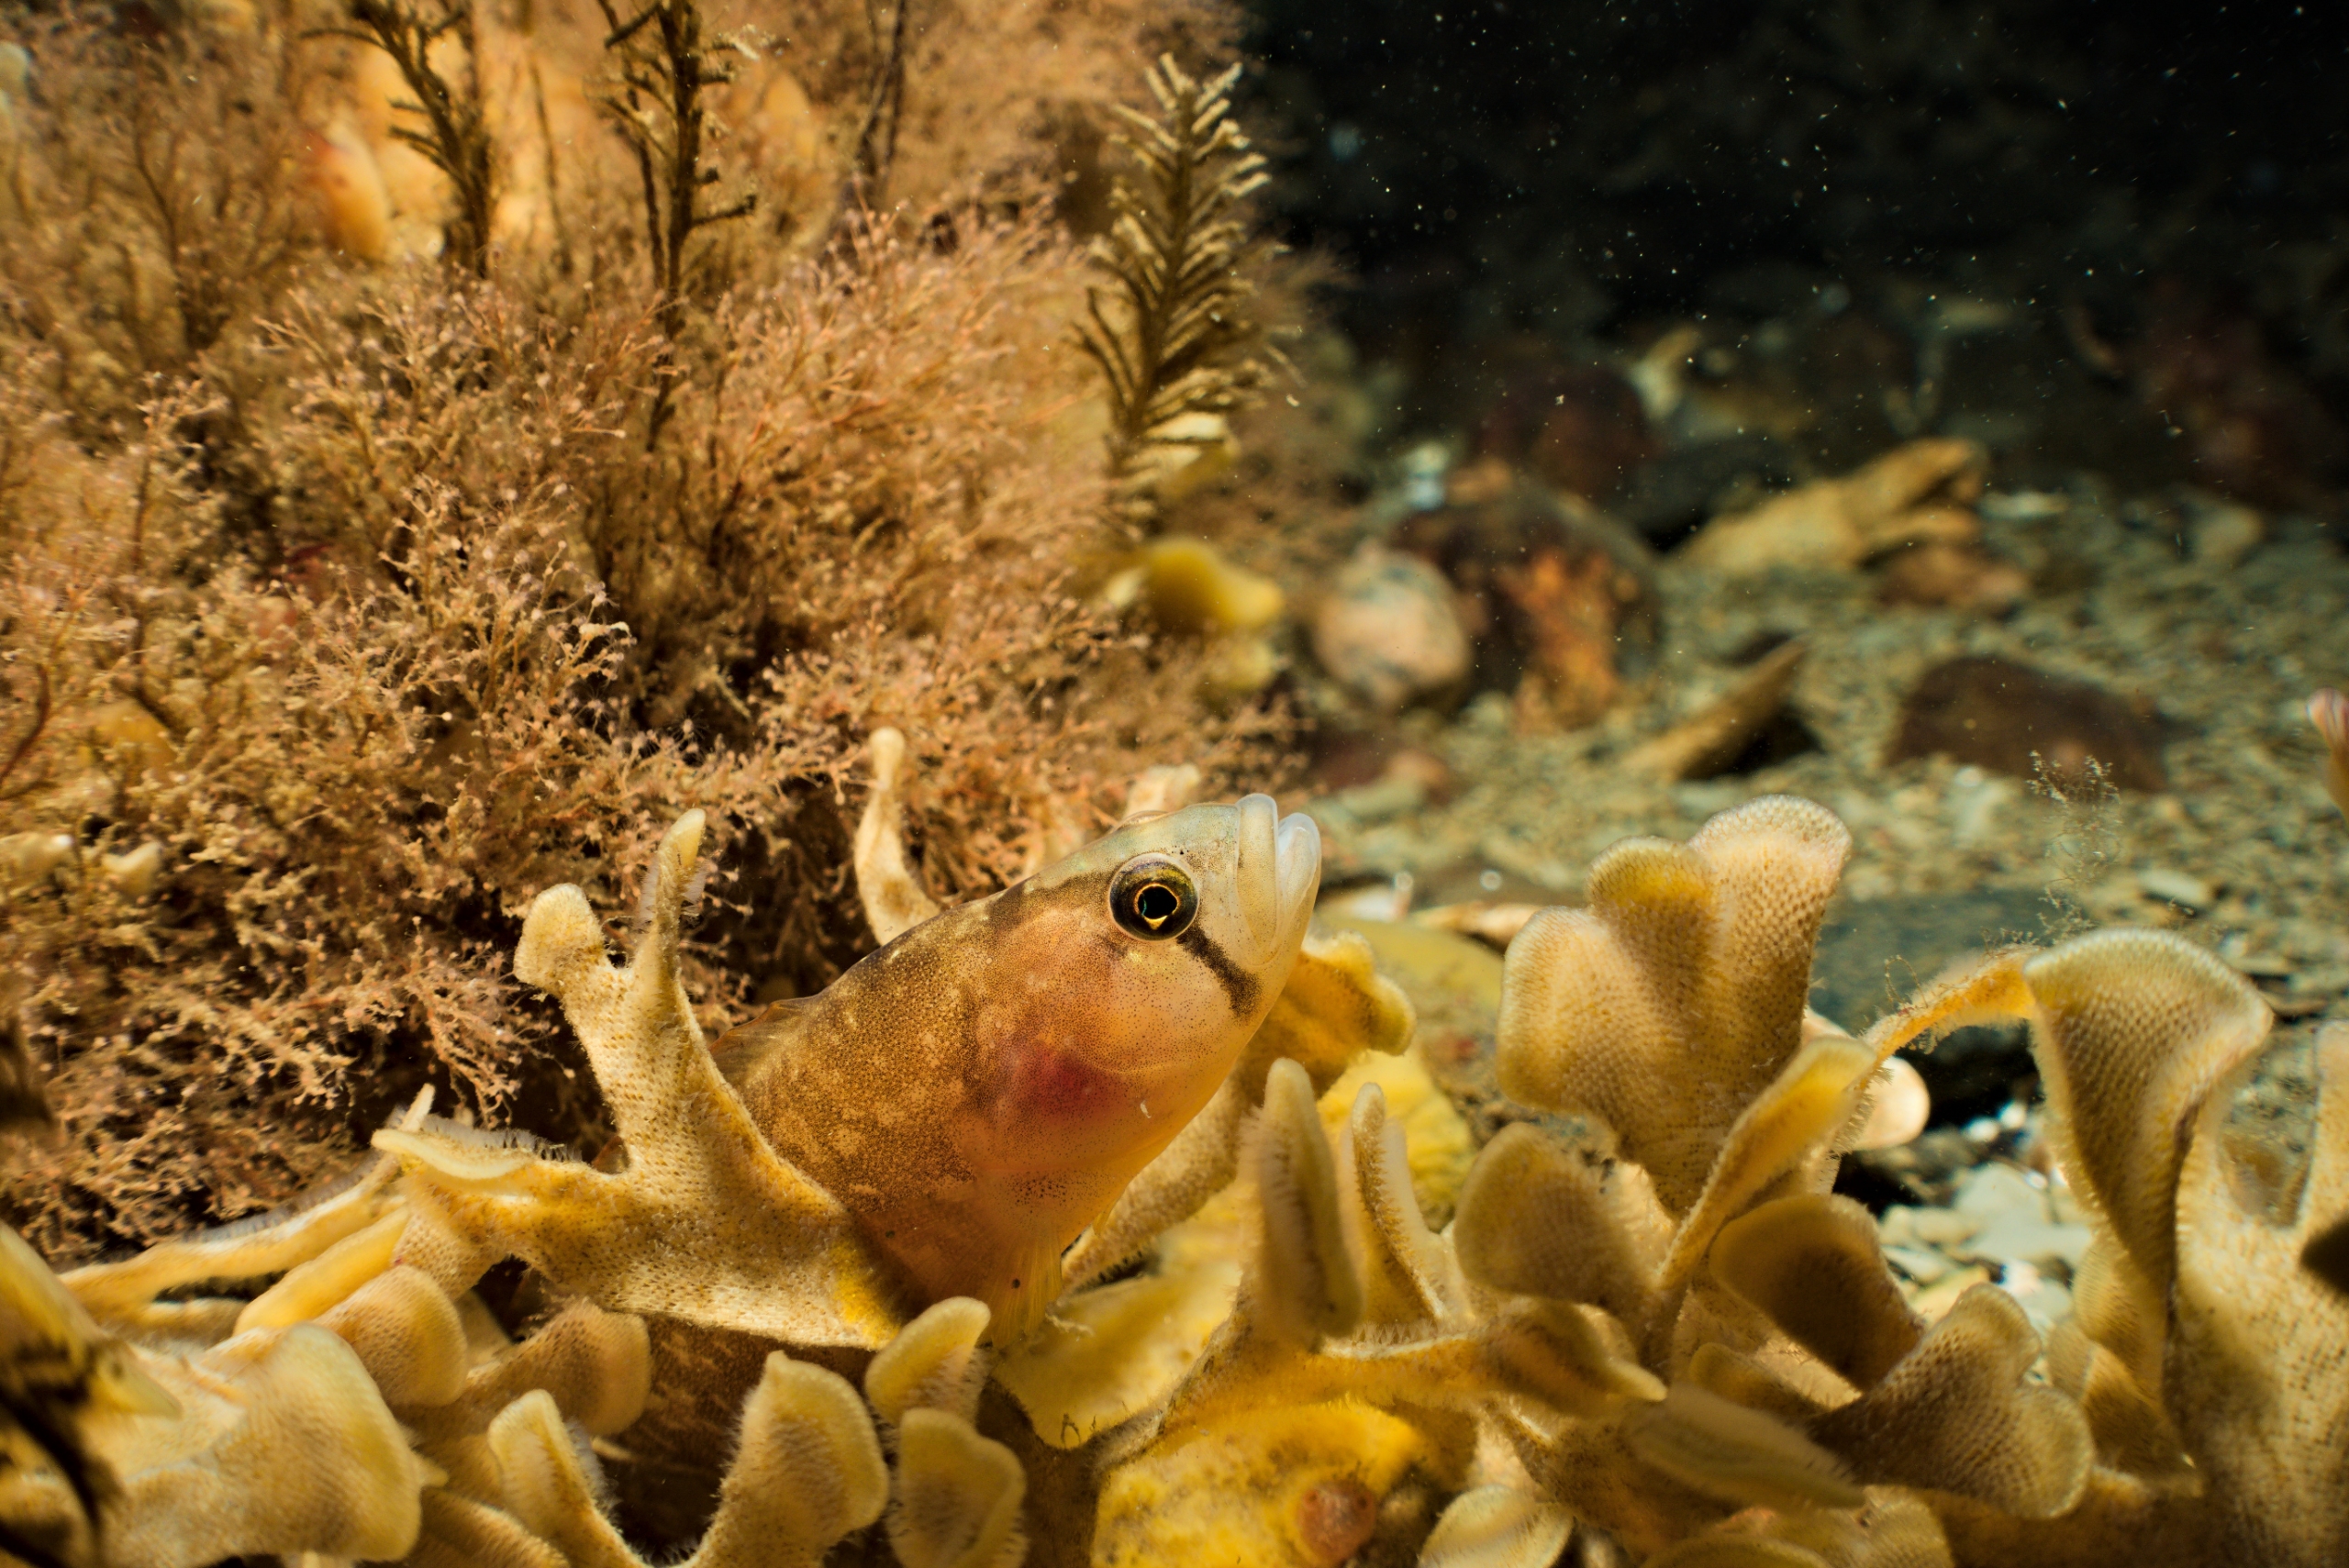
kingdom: Animalia
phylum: Chordata
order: Perciformes
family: Pholidae
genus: Pholis
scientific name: Pholis gunnellus
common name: Tangspræl
